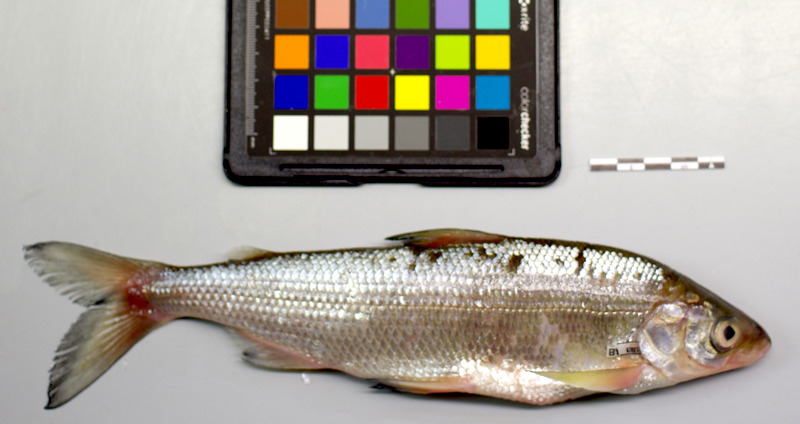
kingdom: Animalia
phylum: Chordata
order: Salmoniformes
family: Salmonidae
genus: Coregonus
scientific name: Coregonus
